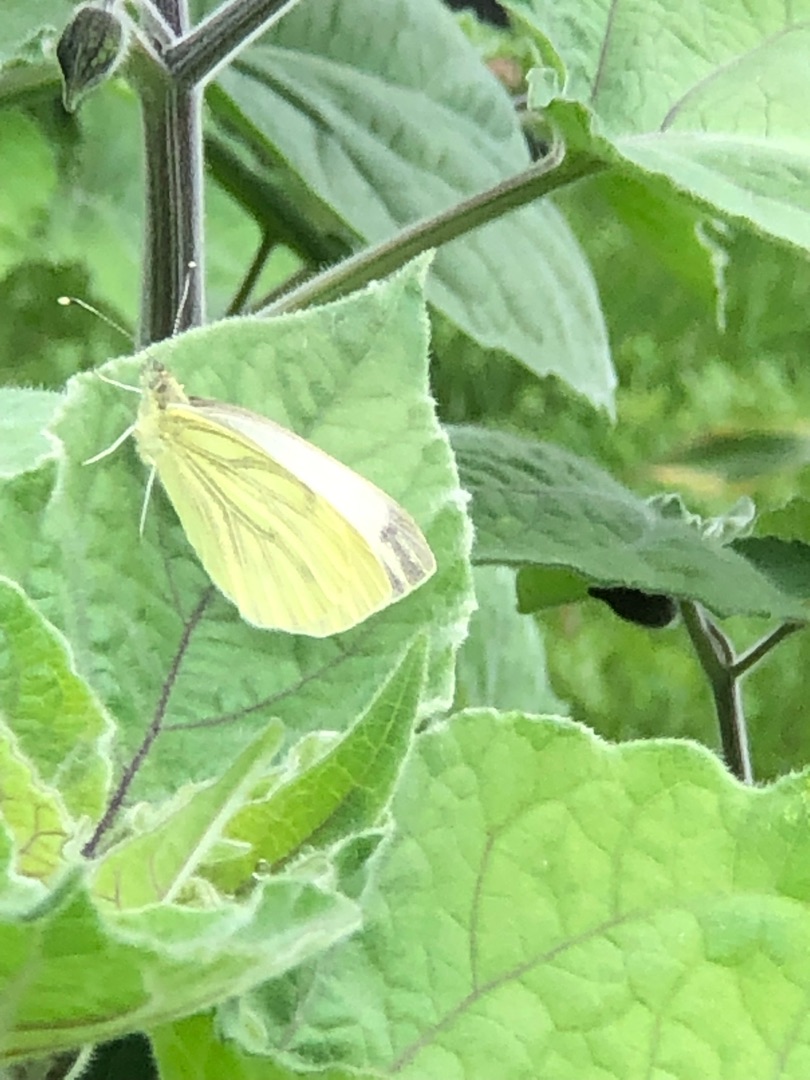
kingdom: Animalia
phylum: Arthropoda
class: Insecta
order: Lepidoptera
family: Pieridae
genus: Pieris
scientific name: Pieris napi
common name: Grønåret kålsommerfugl
